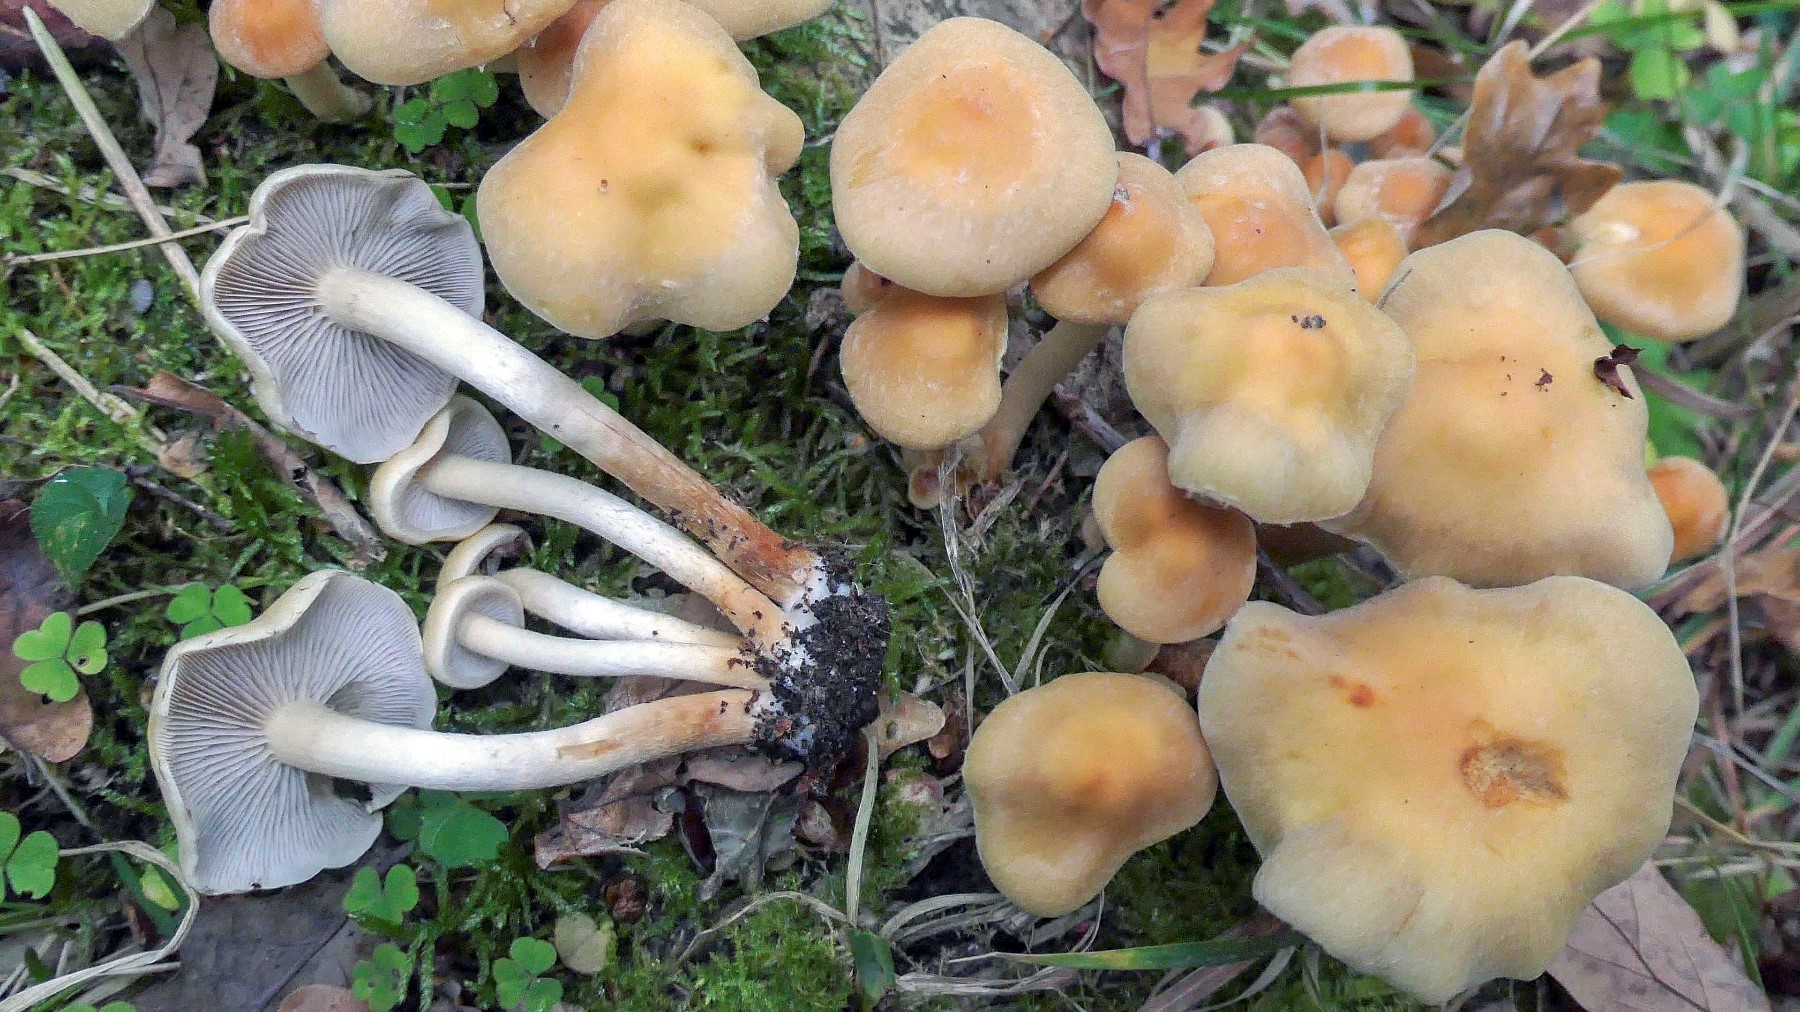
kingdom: Fungi
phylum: Basidiomycota
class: Agaricomycetes
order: Agaricales
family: Strophariaceae
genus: Hypholoma
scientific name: Hypholoma capnoides
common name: gran-svovlhat
